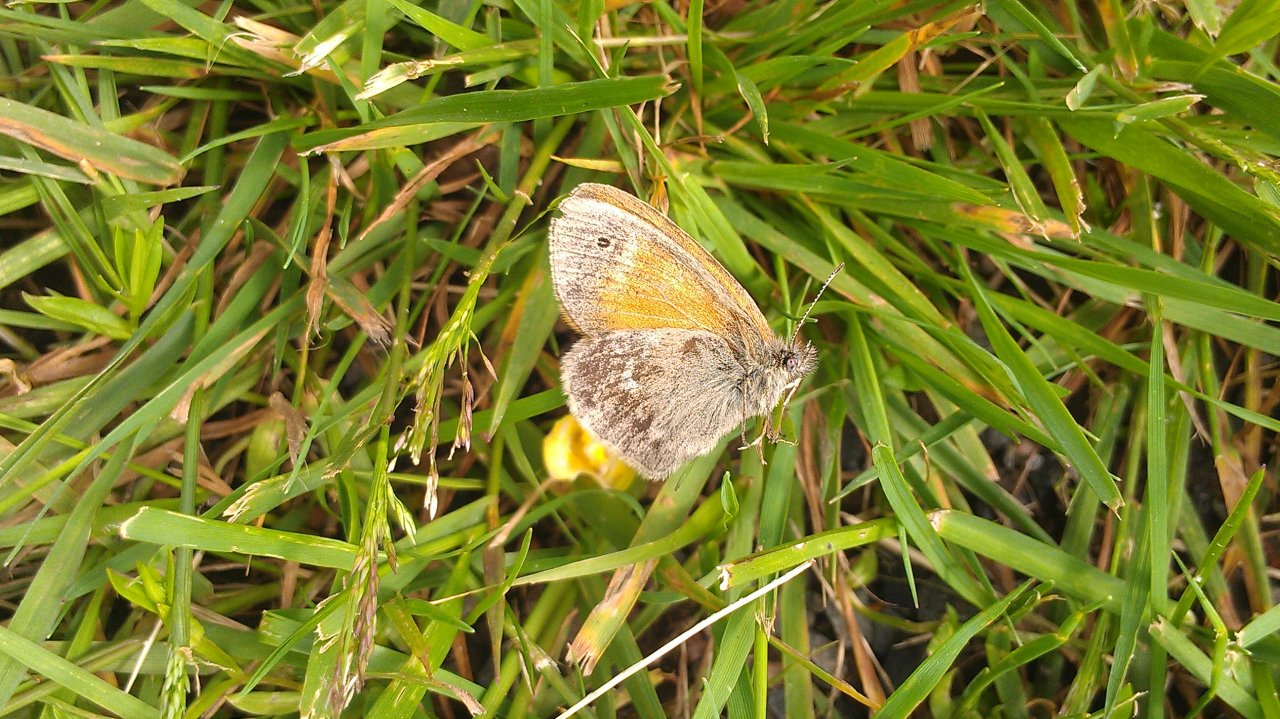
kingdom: Animalia
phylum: Arthropoda
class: Insecta
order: Lepidoptera
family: Nymphalidae
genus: Coenonympha
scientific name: Coenonympha tullia
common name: Large Heath
